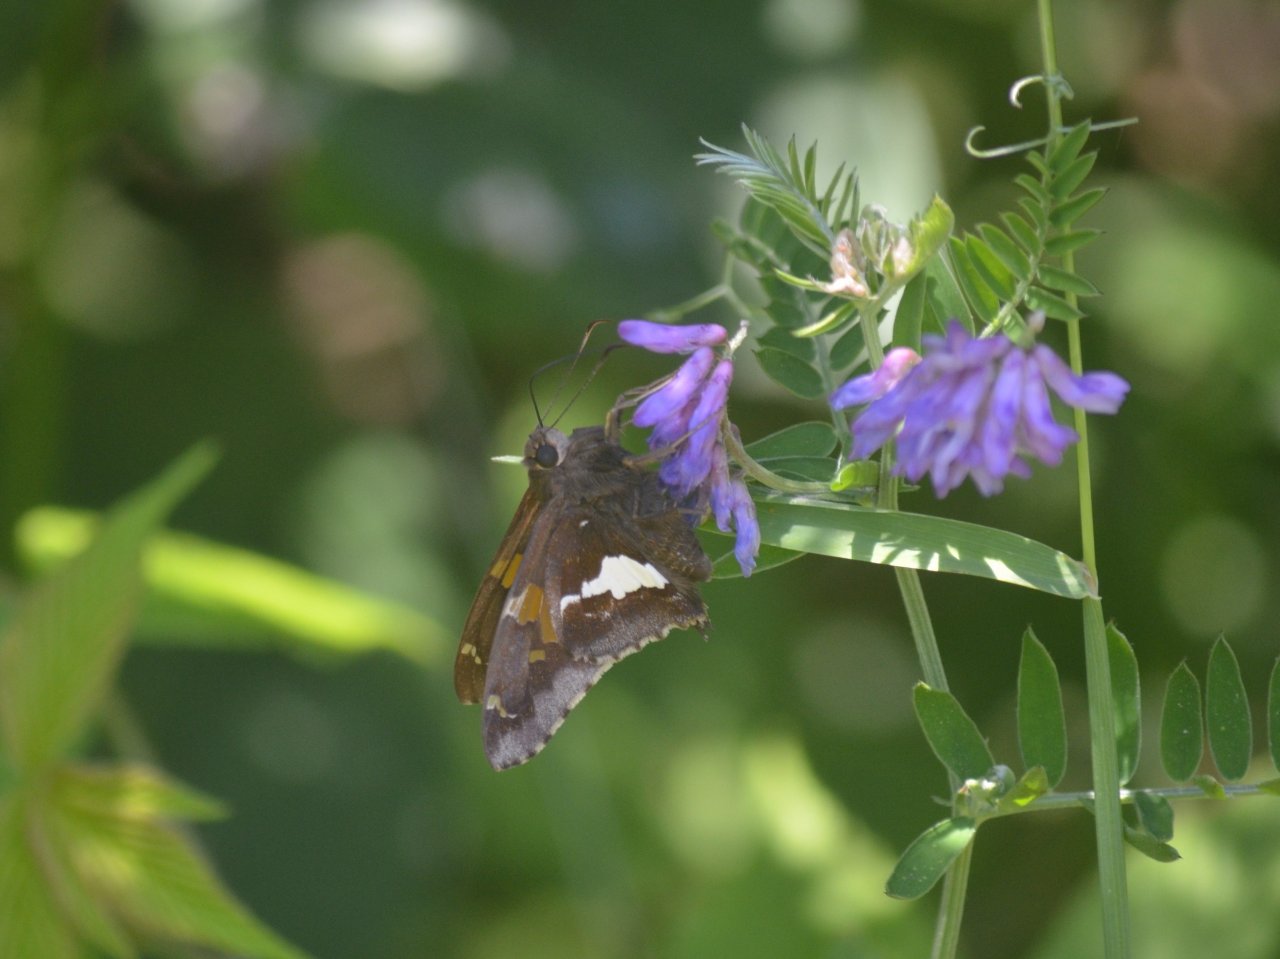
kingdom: Animalia
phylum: Arthropoda
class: Insecta
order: Lepidoptera
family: Hesperiidae
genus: Epargyreus
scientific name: Epargyreus clarus
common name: Silver-spotted Skipper
